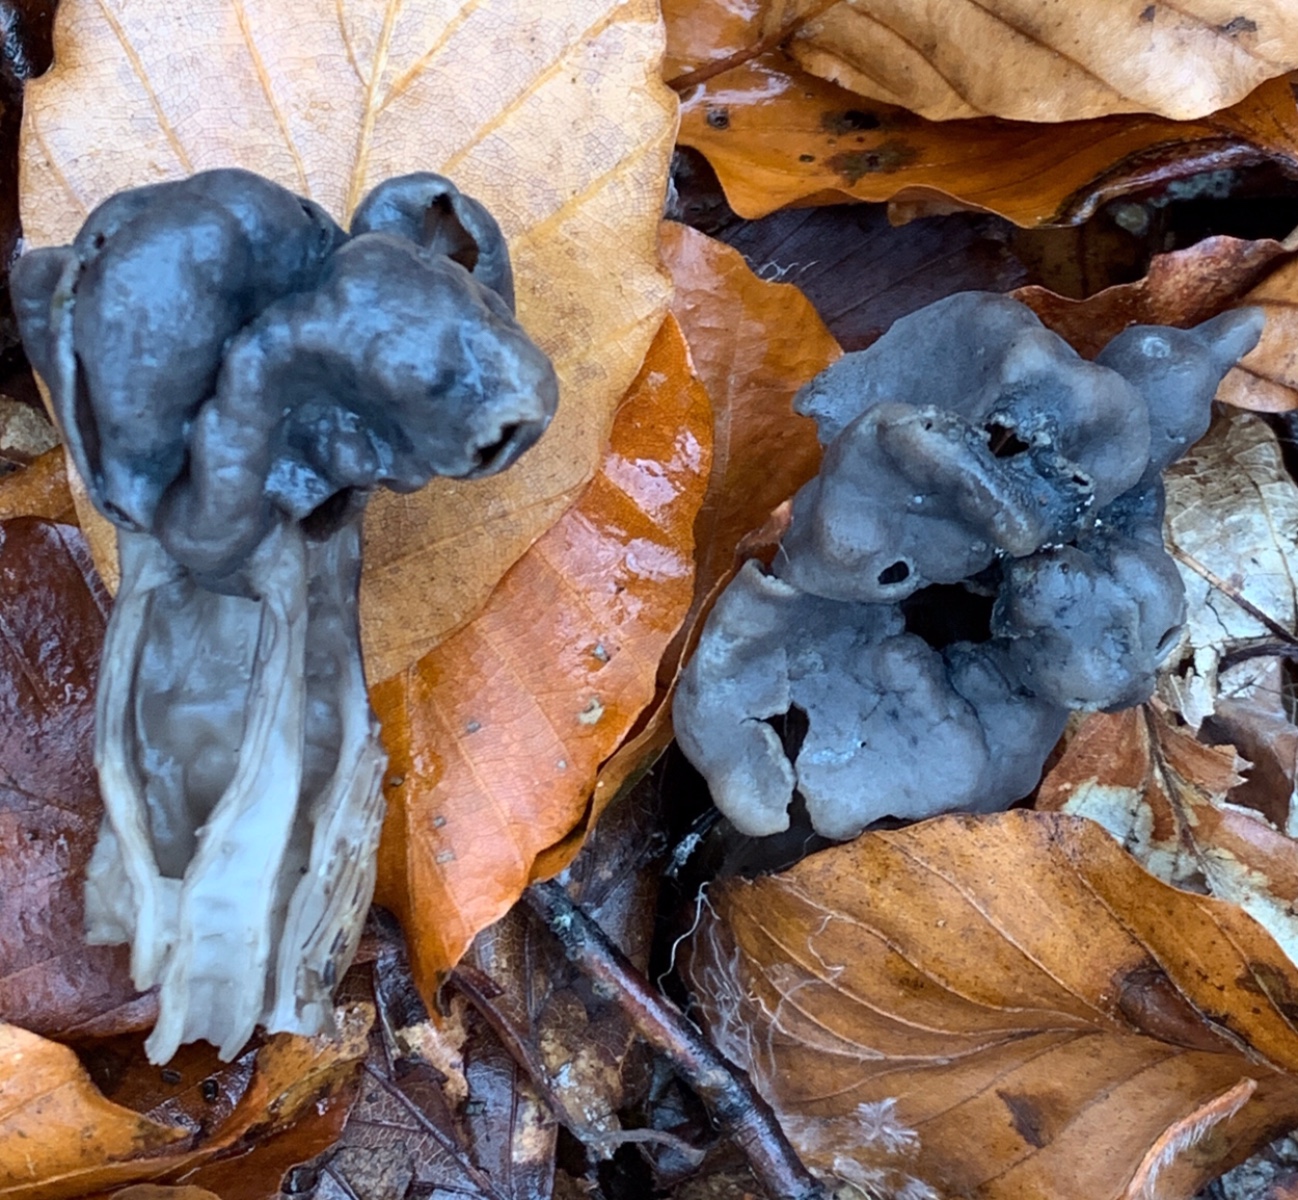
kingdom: Fungi
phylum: Ascomycota
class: Pezizomycetes
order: Pezizales
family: Helvellaceae
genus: Helvella
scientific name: Helvella lacunosa
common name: grubet foldhat
